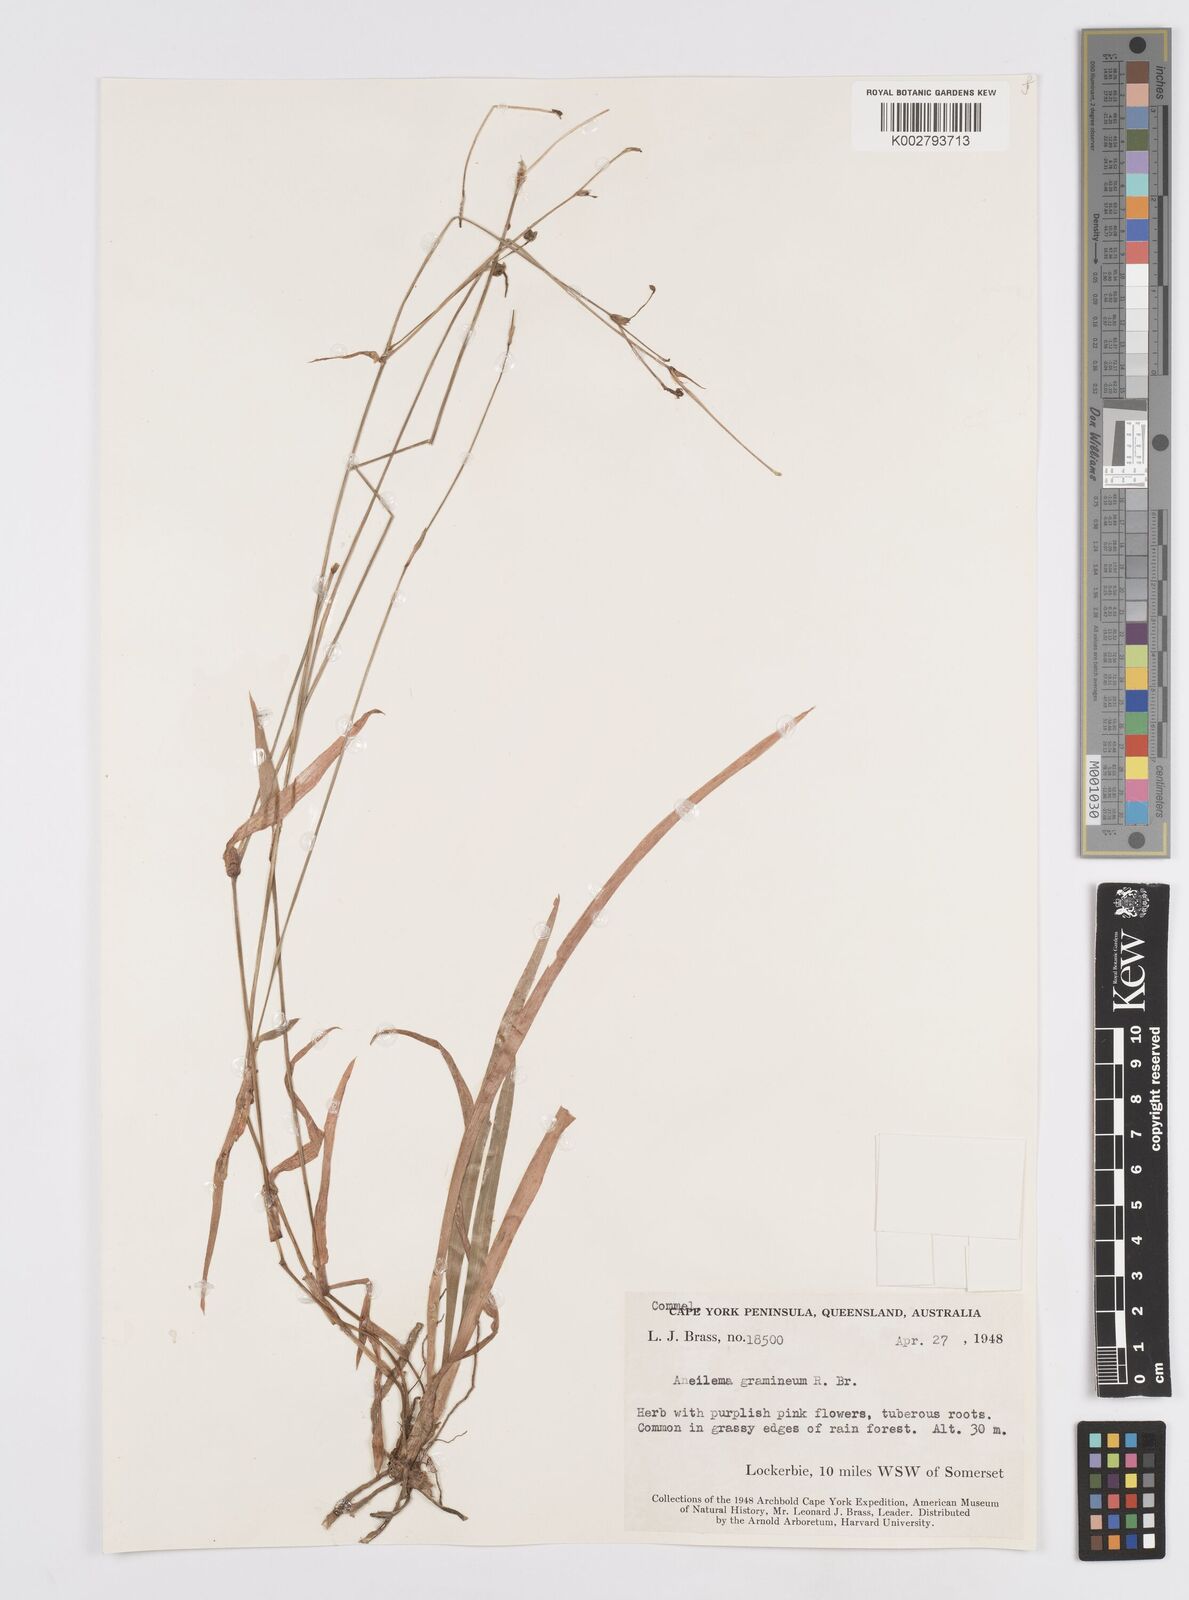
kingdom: Plantae
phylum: Tracheophyta
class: Liliopsida
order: Commelinales
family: Commelinaceae
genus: Murdannia
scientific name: Murdannia graminea
